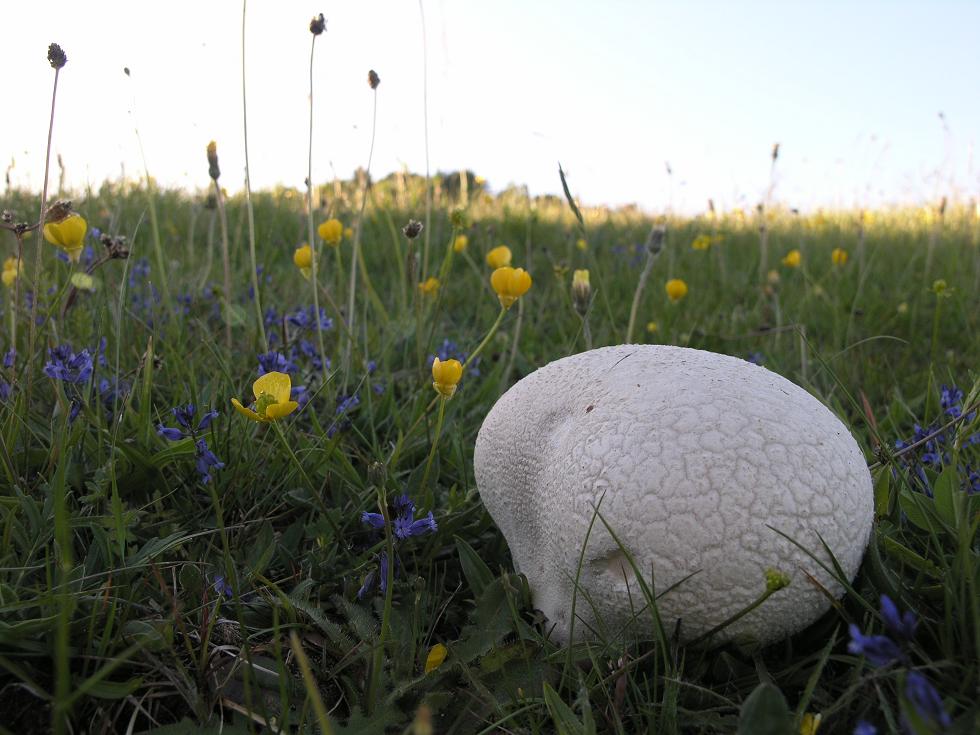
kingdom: Fungi
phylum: Basidiomycota
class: Agaricomycetes
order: Agaricales
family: Lycoperdaceae
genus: Bovistella
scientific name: Bovistella utriformis
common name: skællet støvbold
